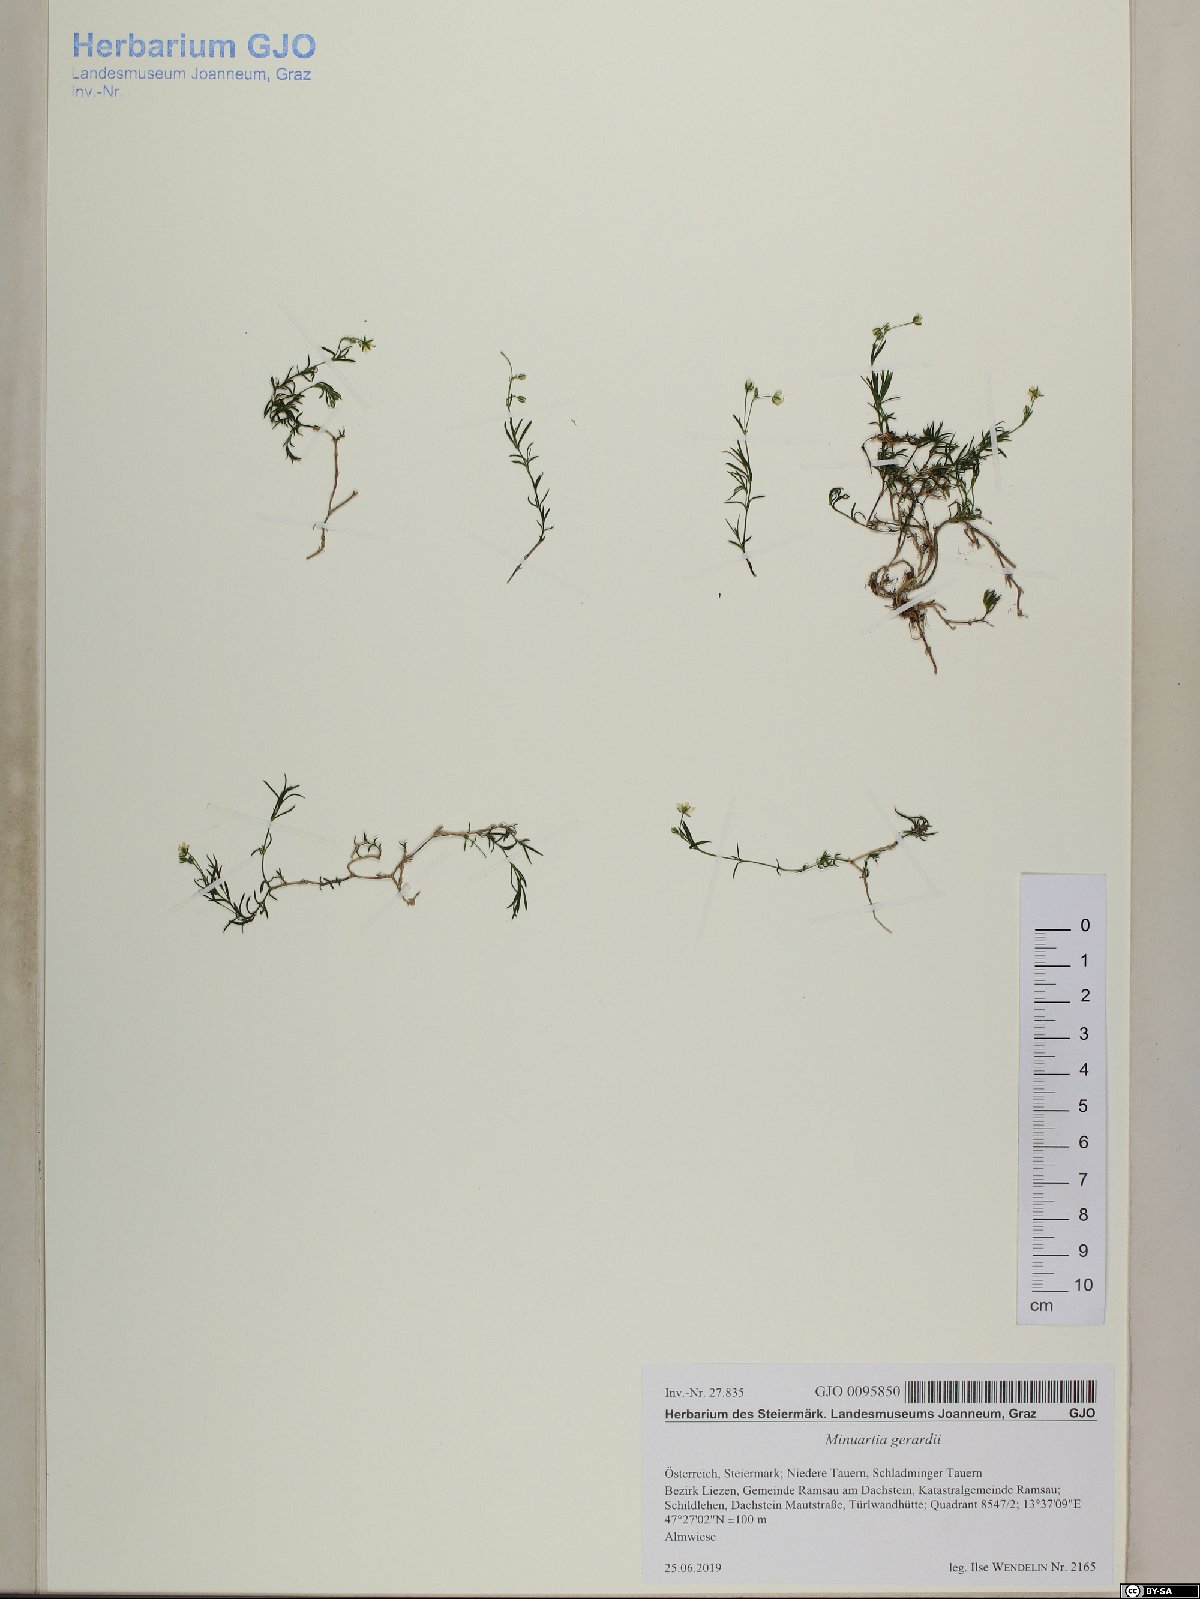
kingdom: Plantae
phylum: Tracheophyta
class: Magnoliopsida
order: Caryophyllales
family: Caryophyllaceae
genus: Sabulina
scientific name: Sabulina verna
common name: Spring sandwort
